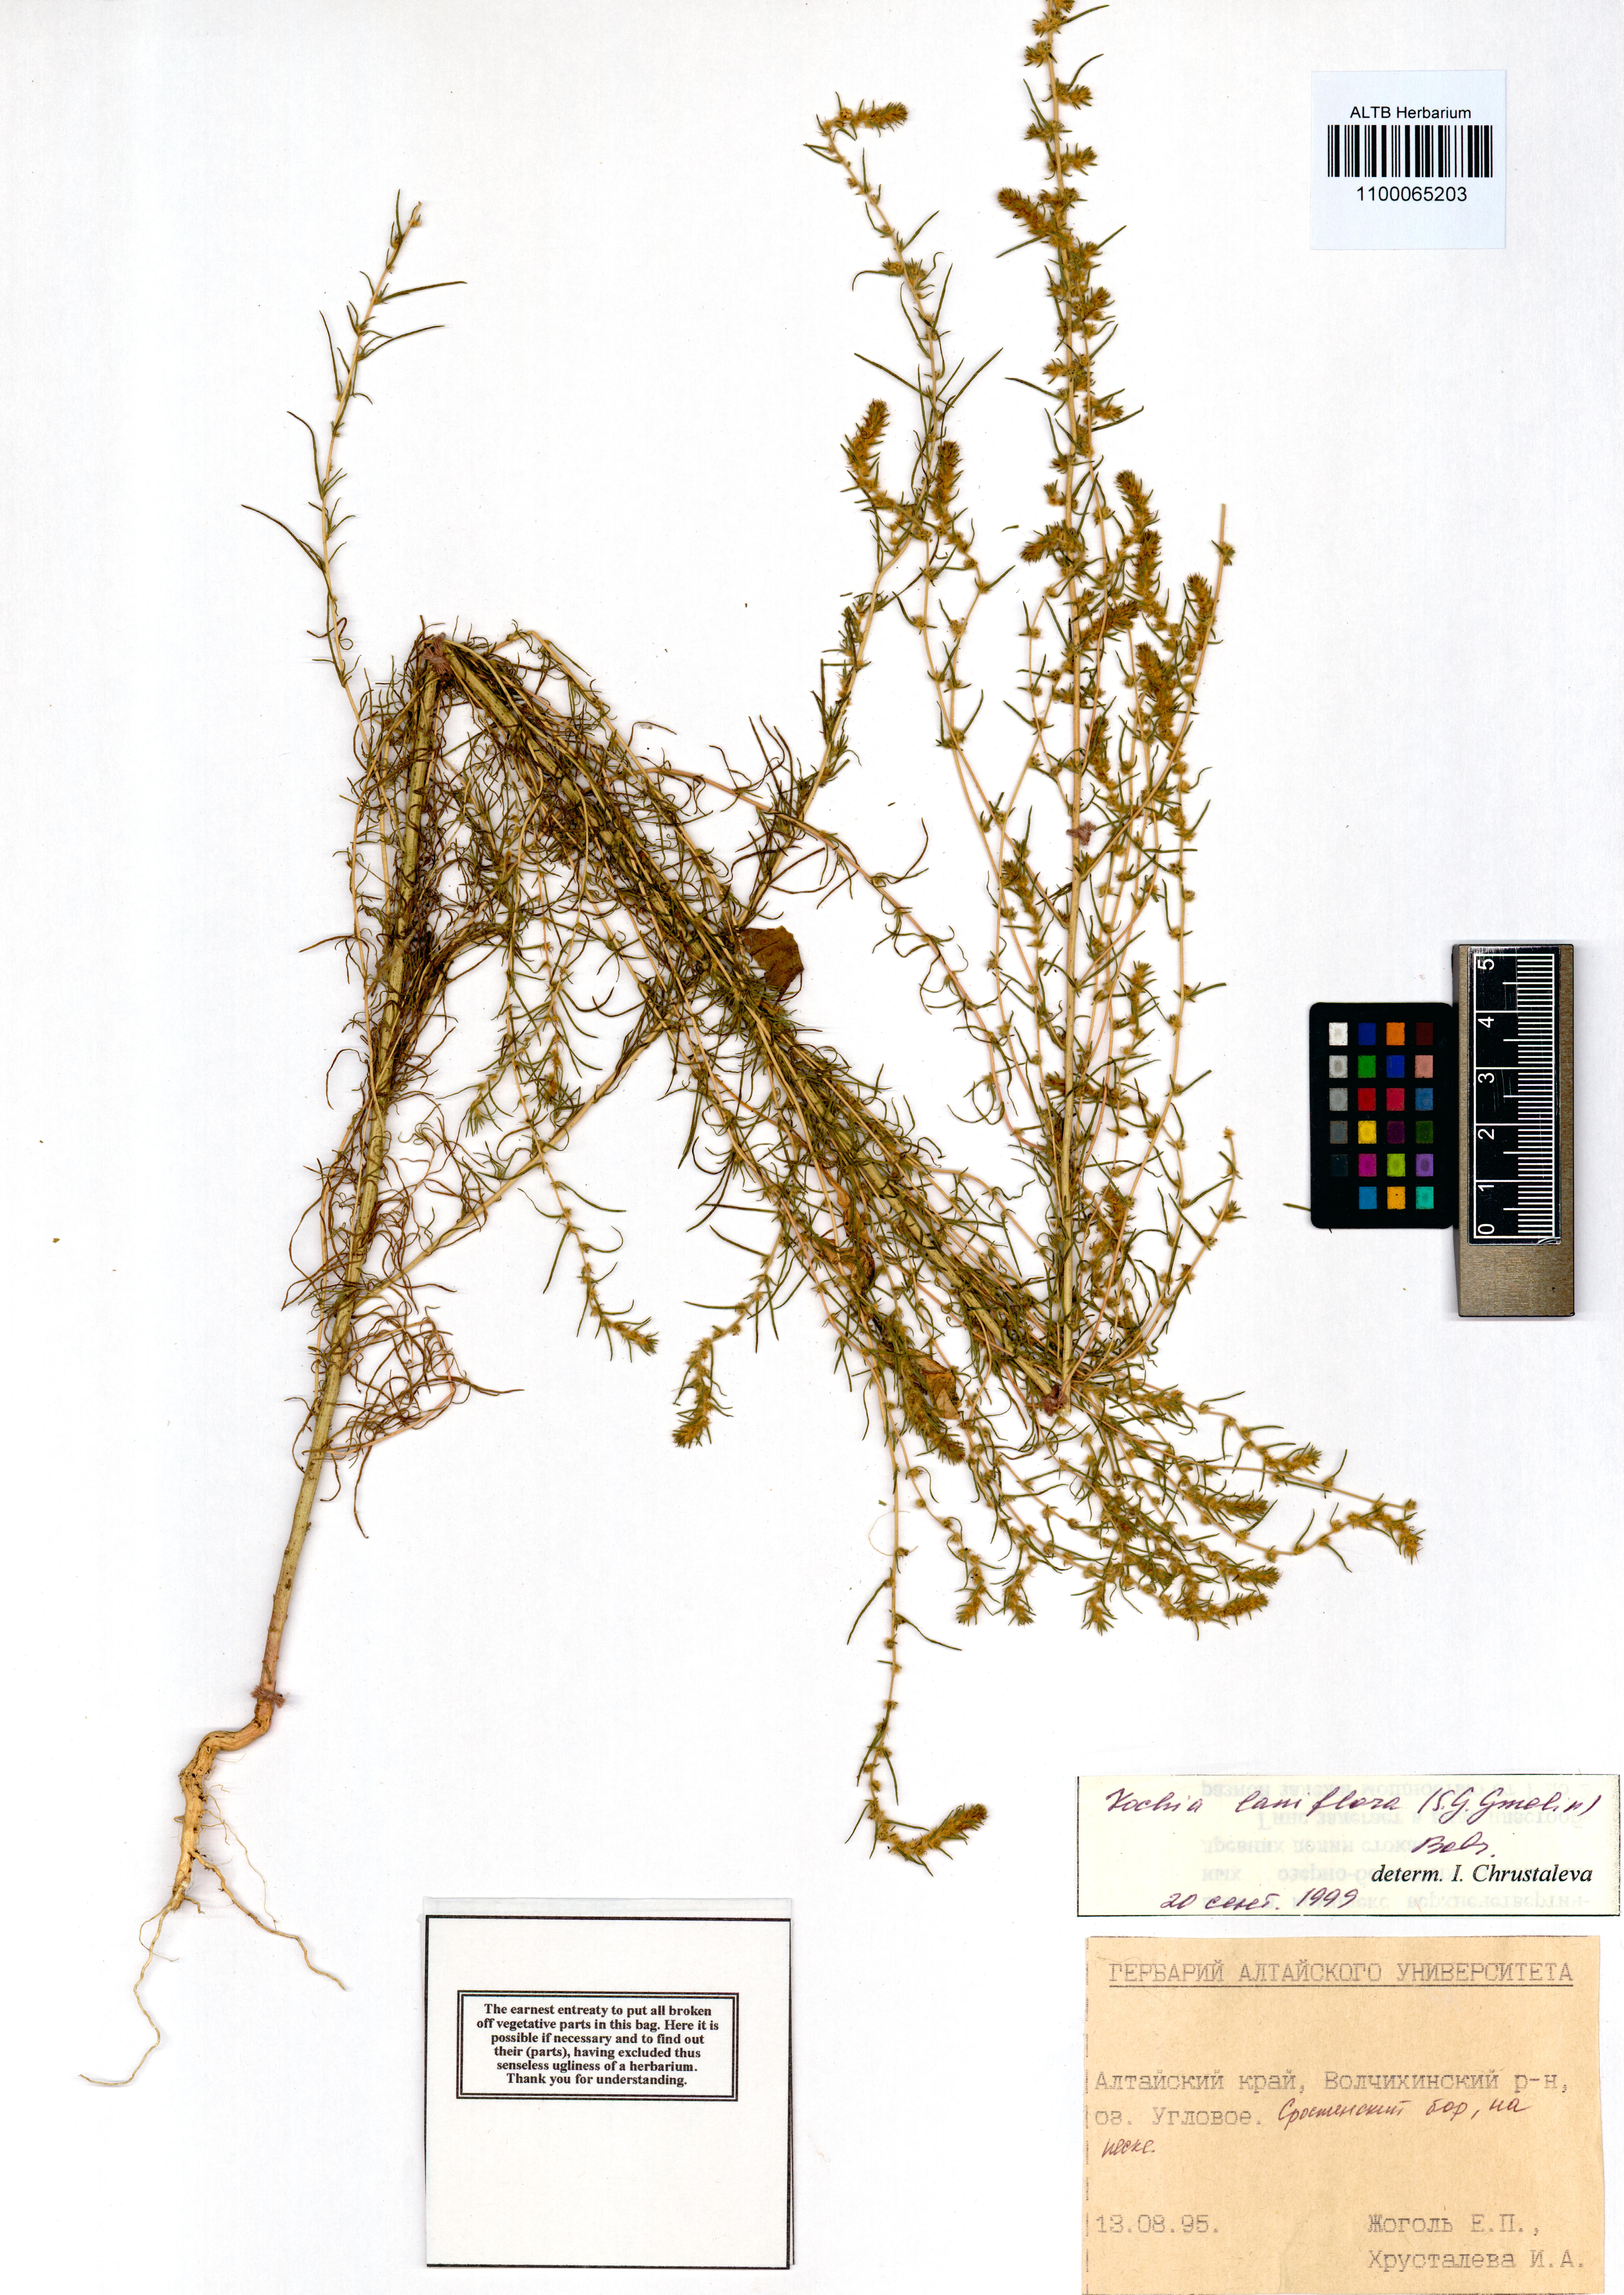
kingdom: Plantae
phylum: Tracheophyta
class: Magnoliopsida
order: Caryophyllales
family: Amaranthaceae
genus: Bassia
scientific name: Bassia laniflora
